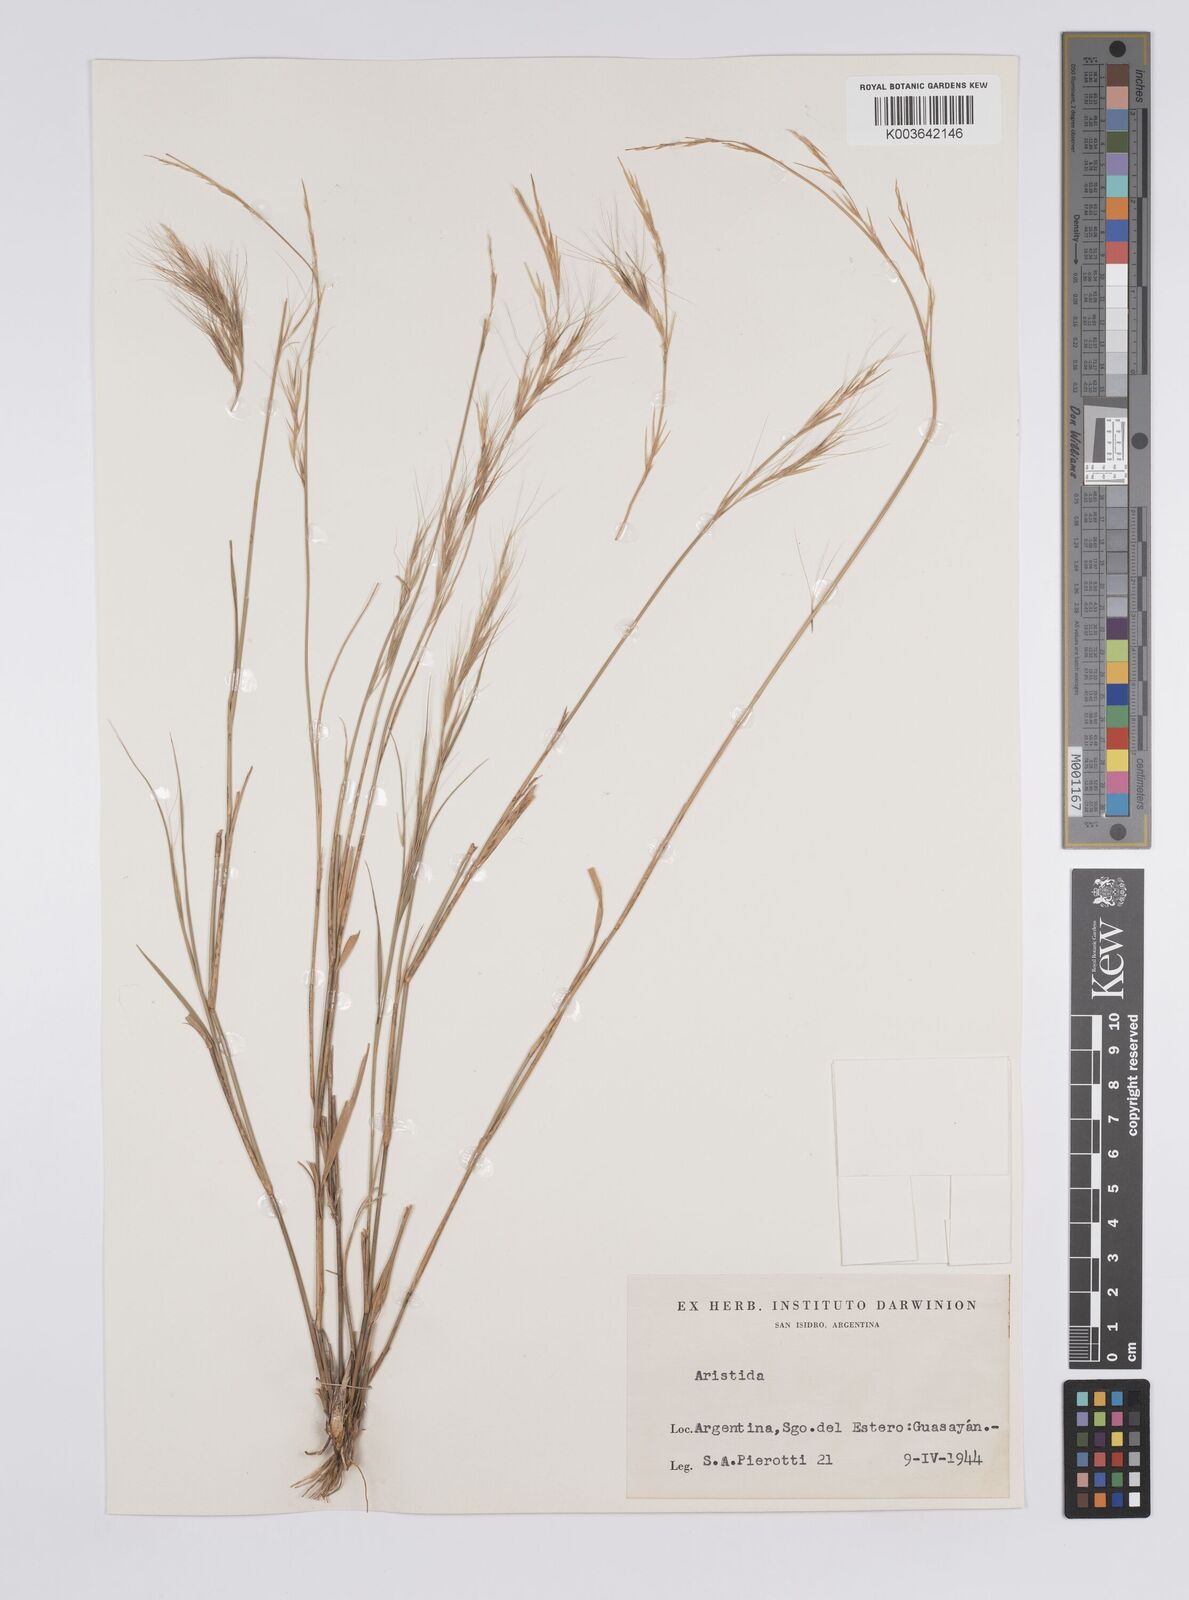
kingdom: Plantae
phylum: Tracheophyta
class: Liliopsida
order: Poales
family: Poaceae
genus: Aristida
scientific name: Aristida
